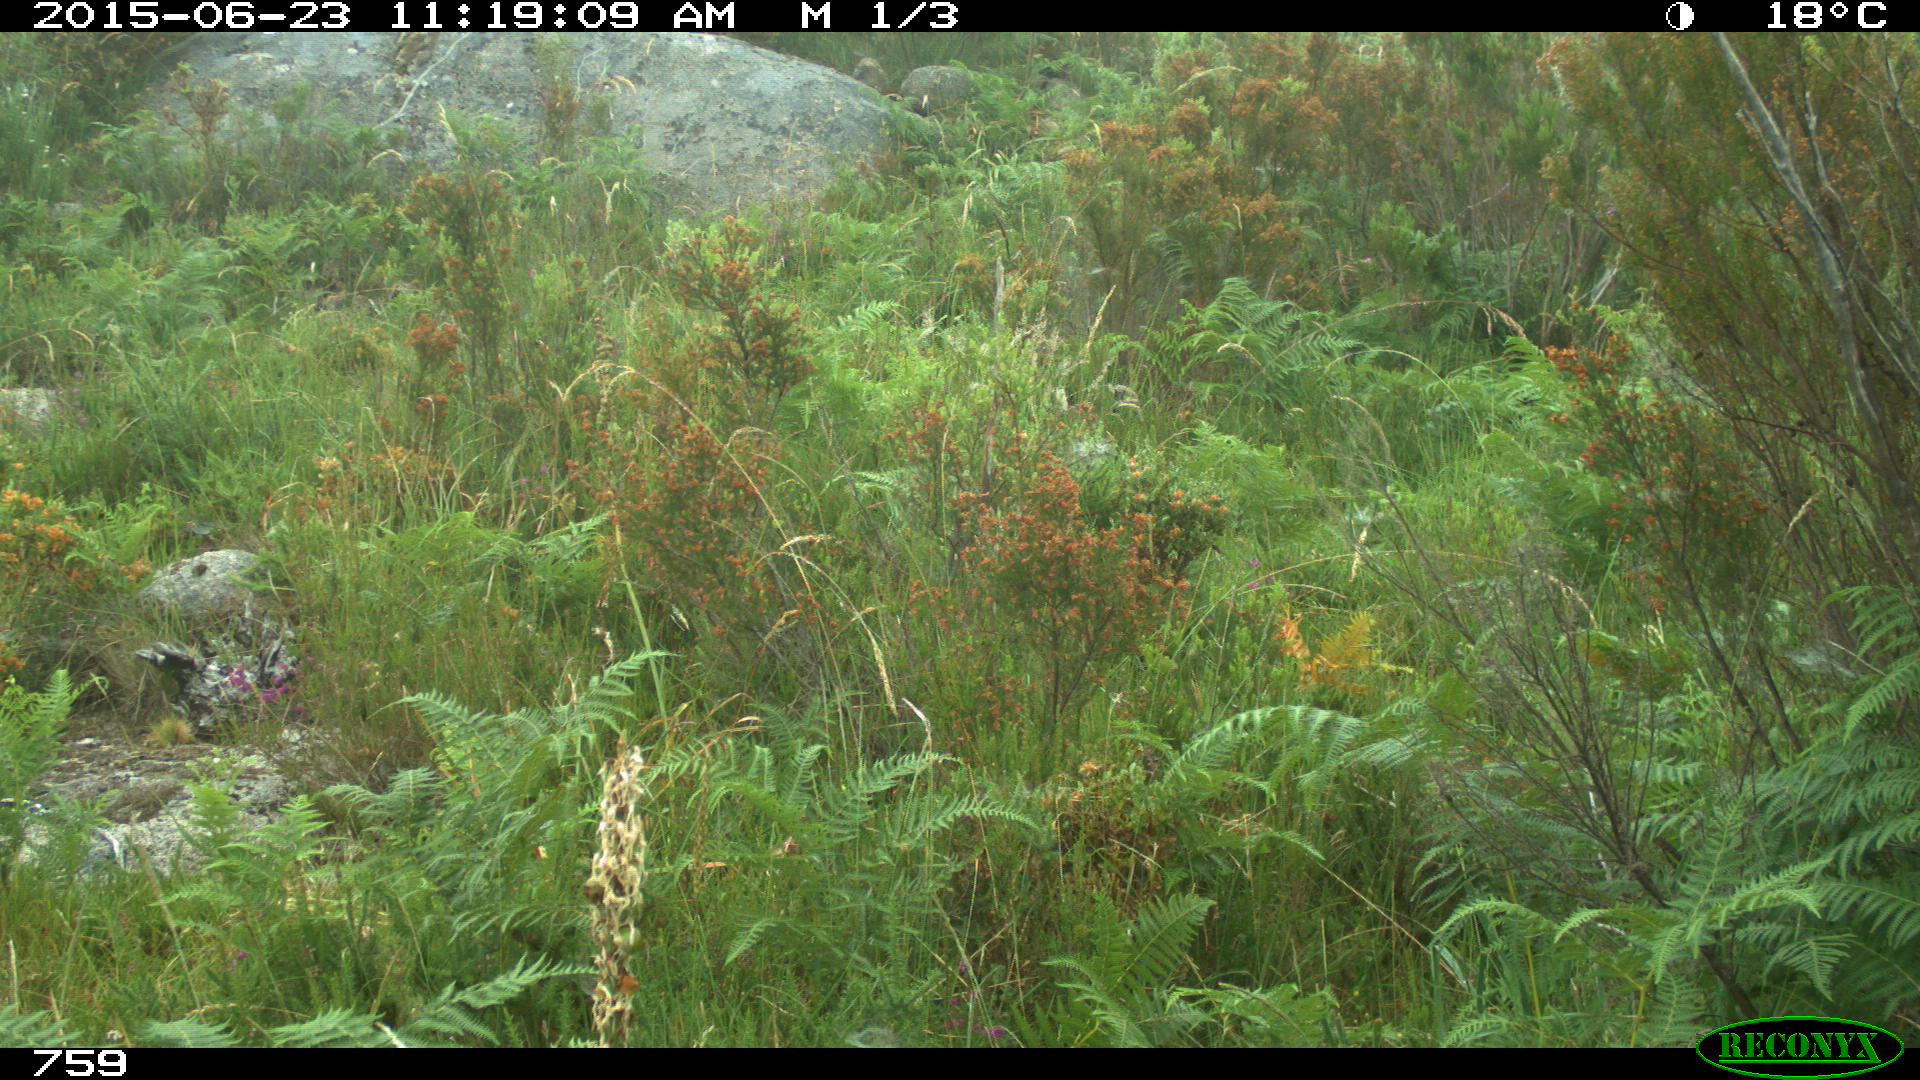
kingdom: Animalia
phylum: Chordata
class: Mammalia
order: Artiodactyla
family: Cervidae
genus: Capreolus
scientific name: Capreolus capreolus
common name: Western roe deer
